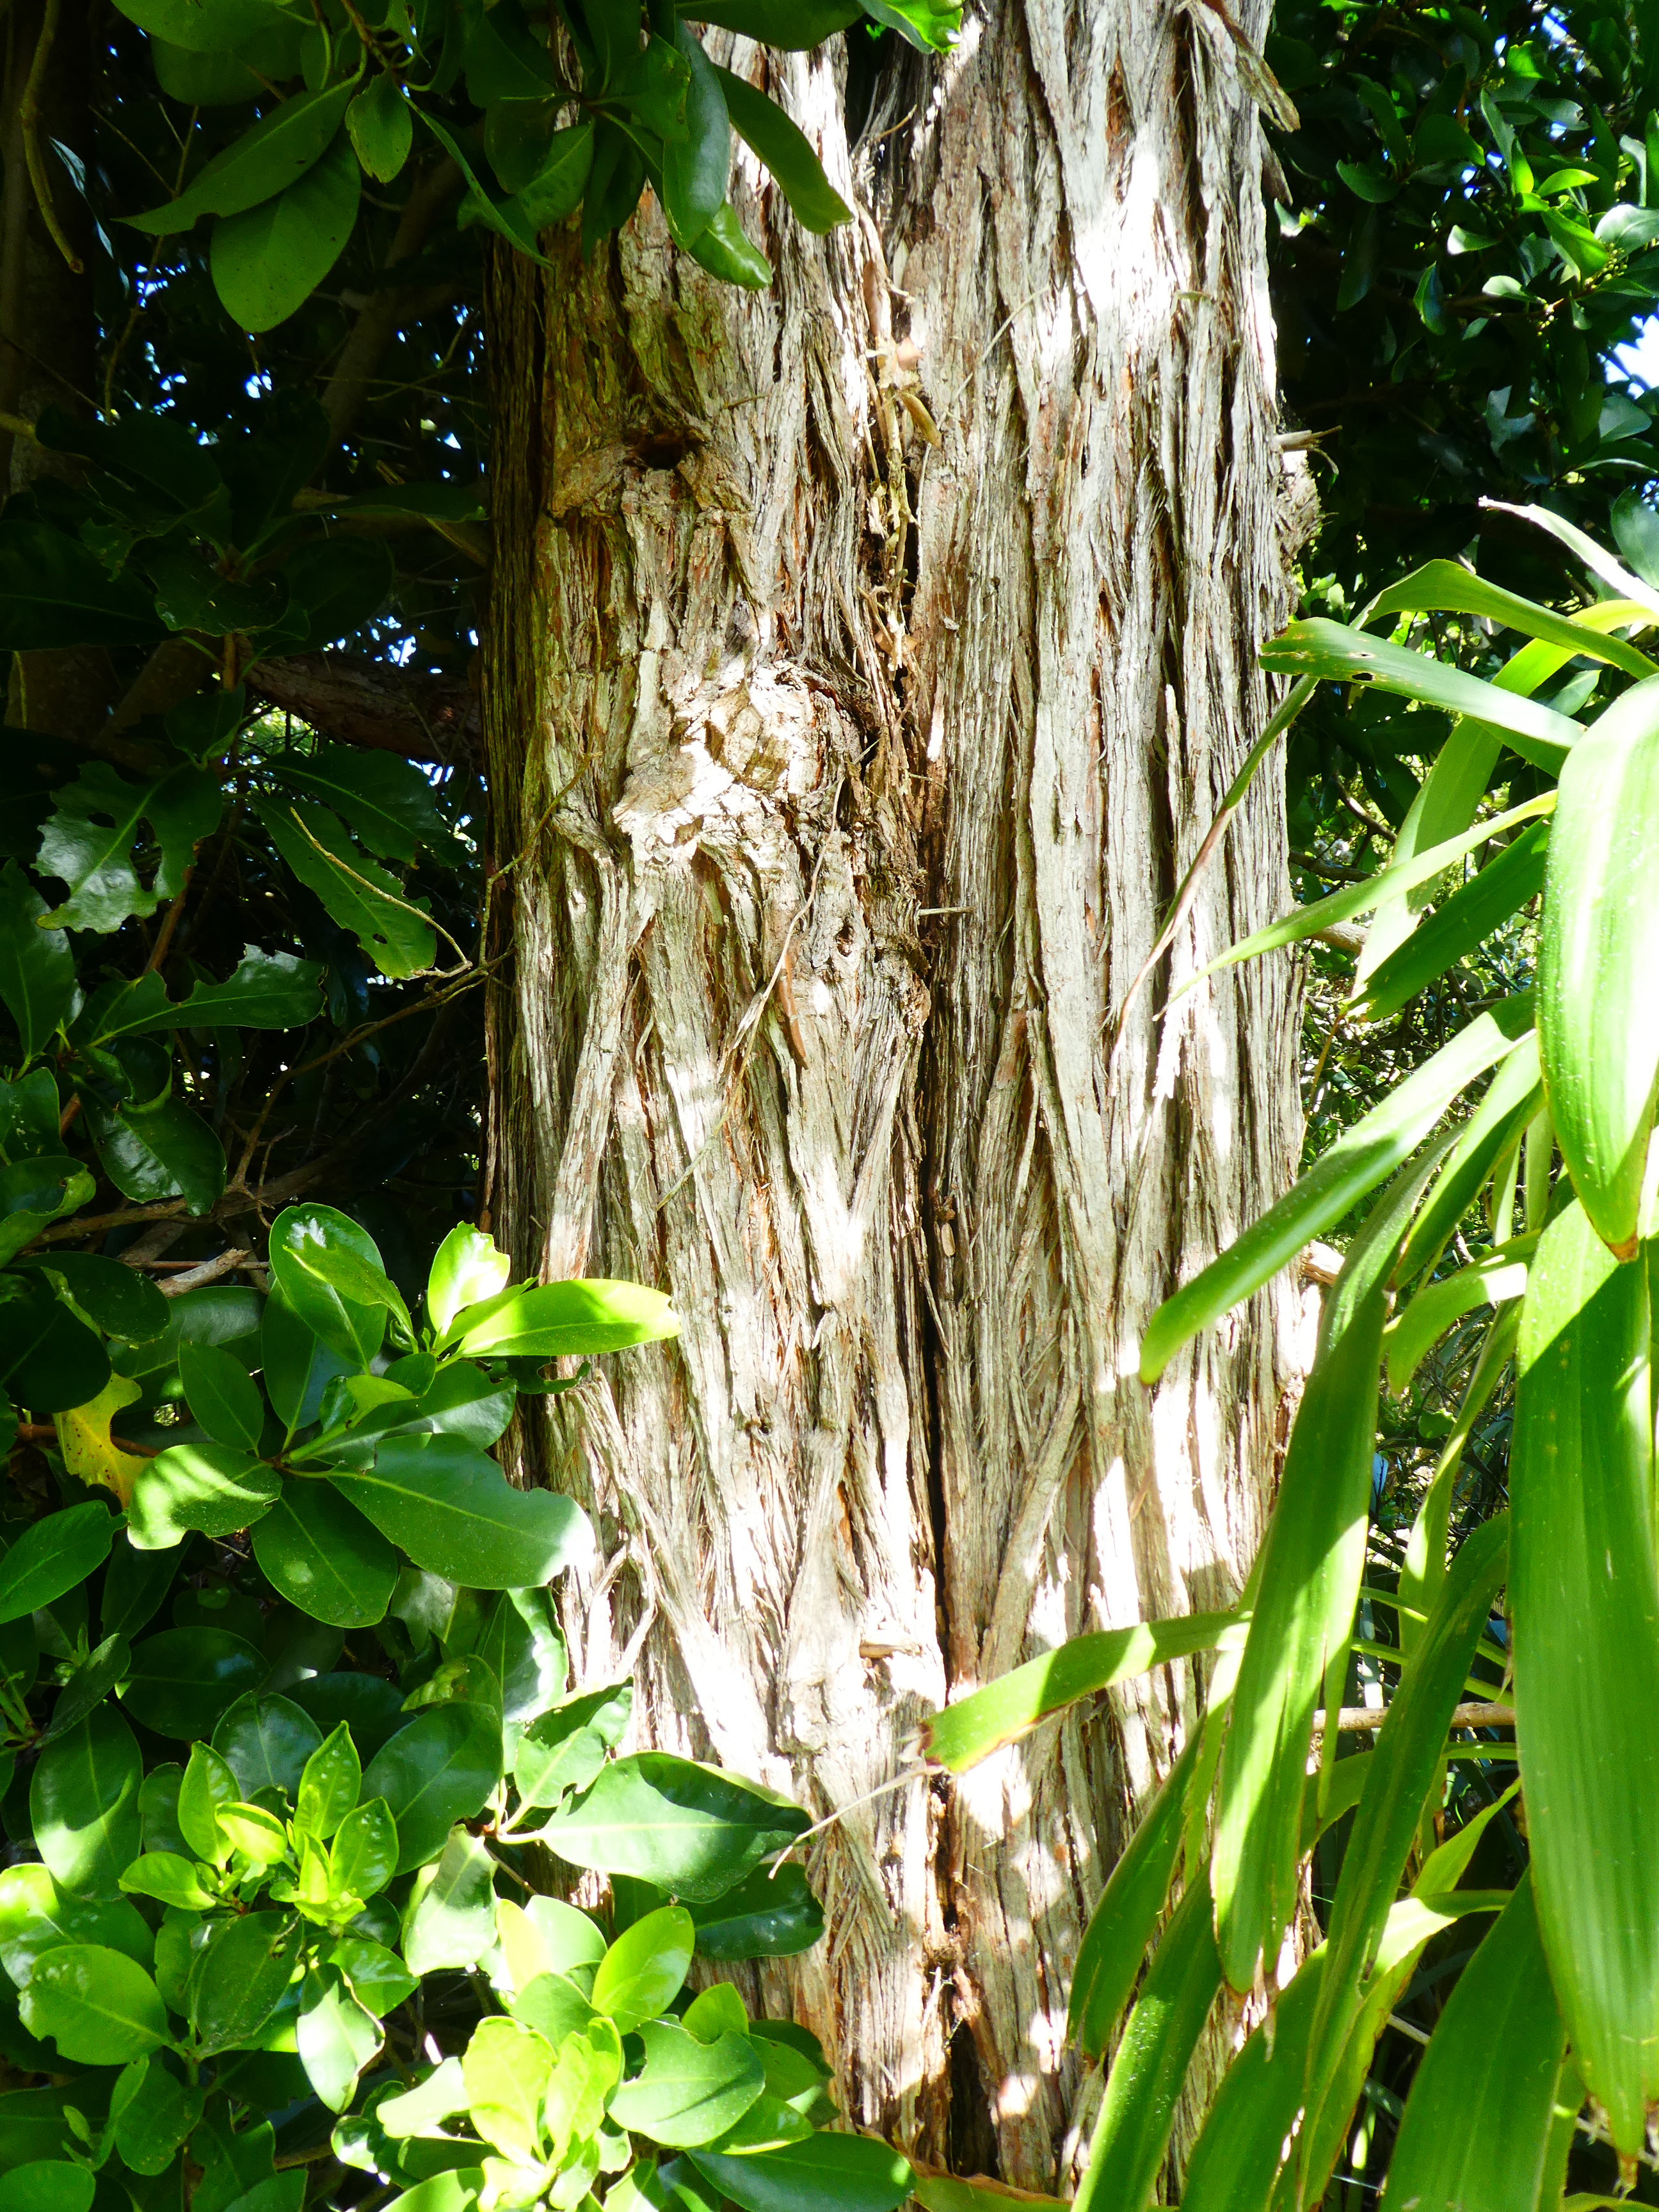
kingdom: Plantae
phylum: Tracheophyta
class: Magnoliopsida
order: Myrtales
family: Myrtaceae
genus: Syncarpia
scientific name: Syncarpia glomulifera
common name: Turpentine tree
